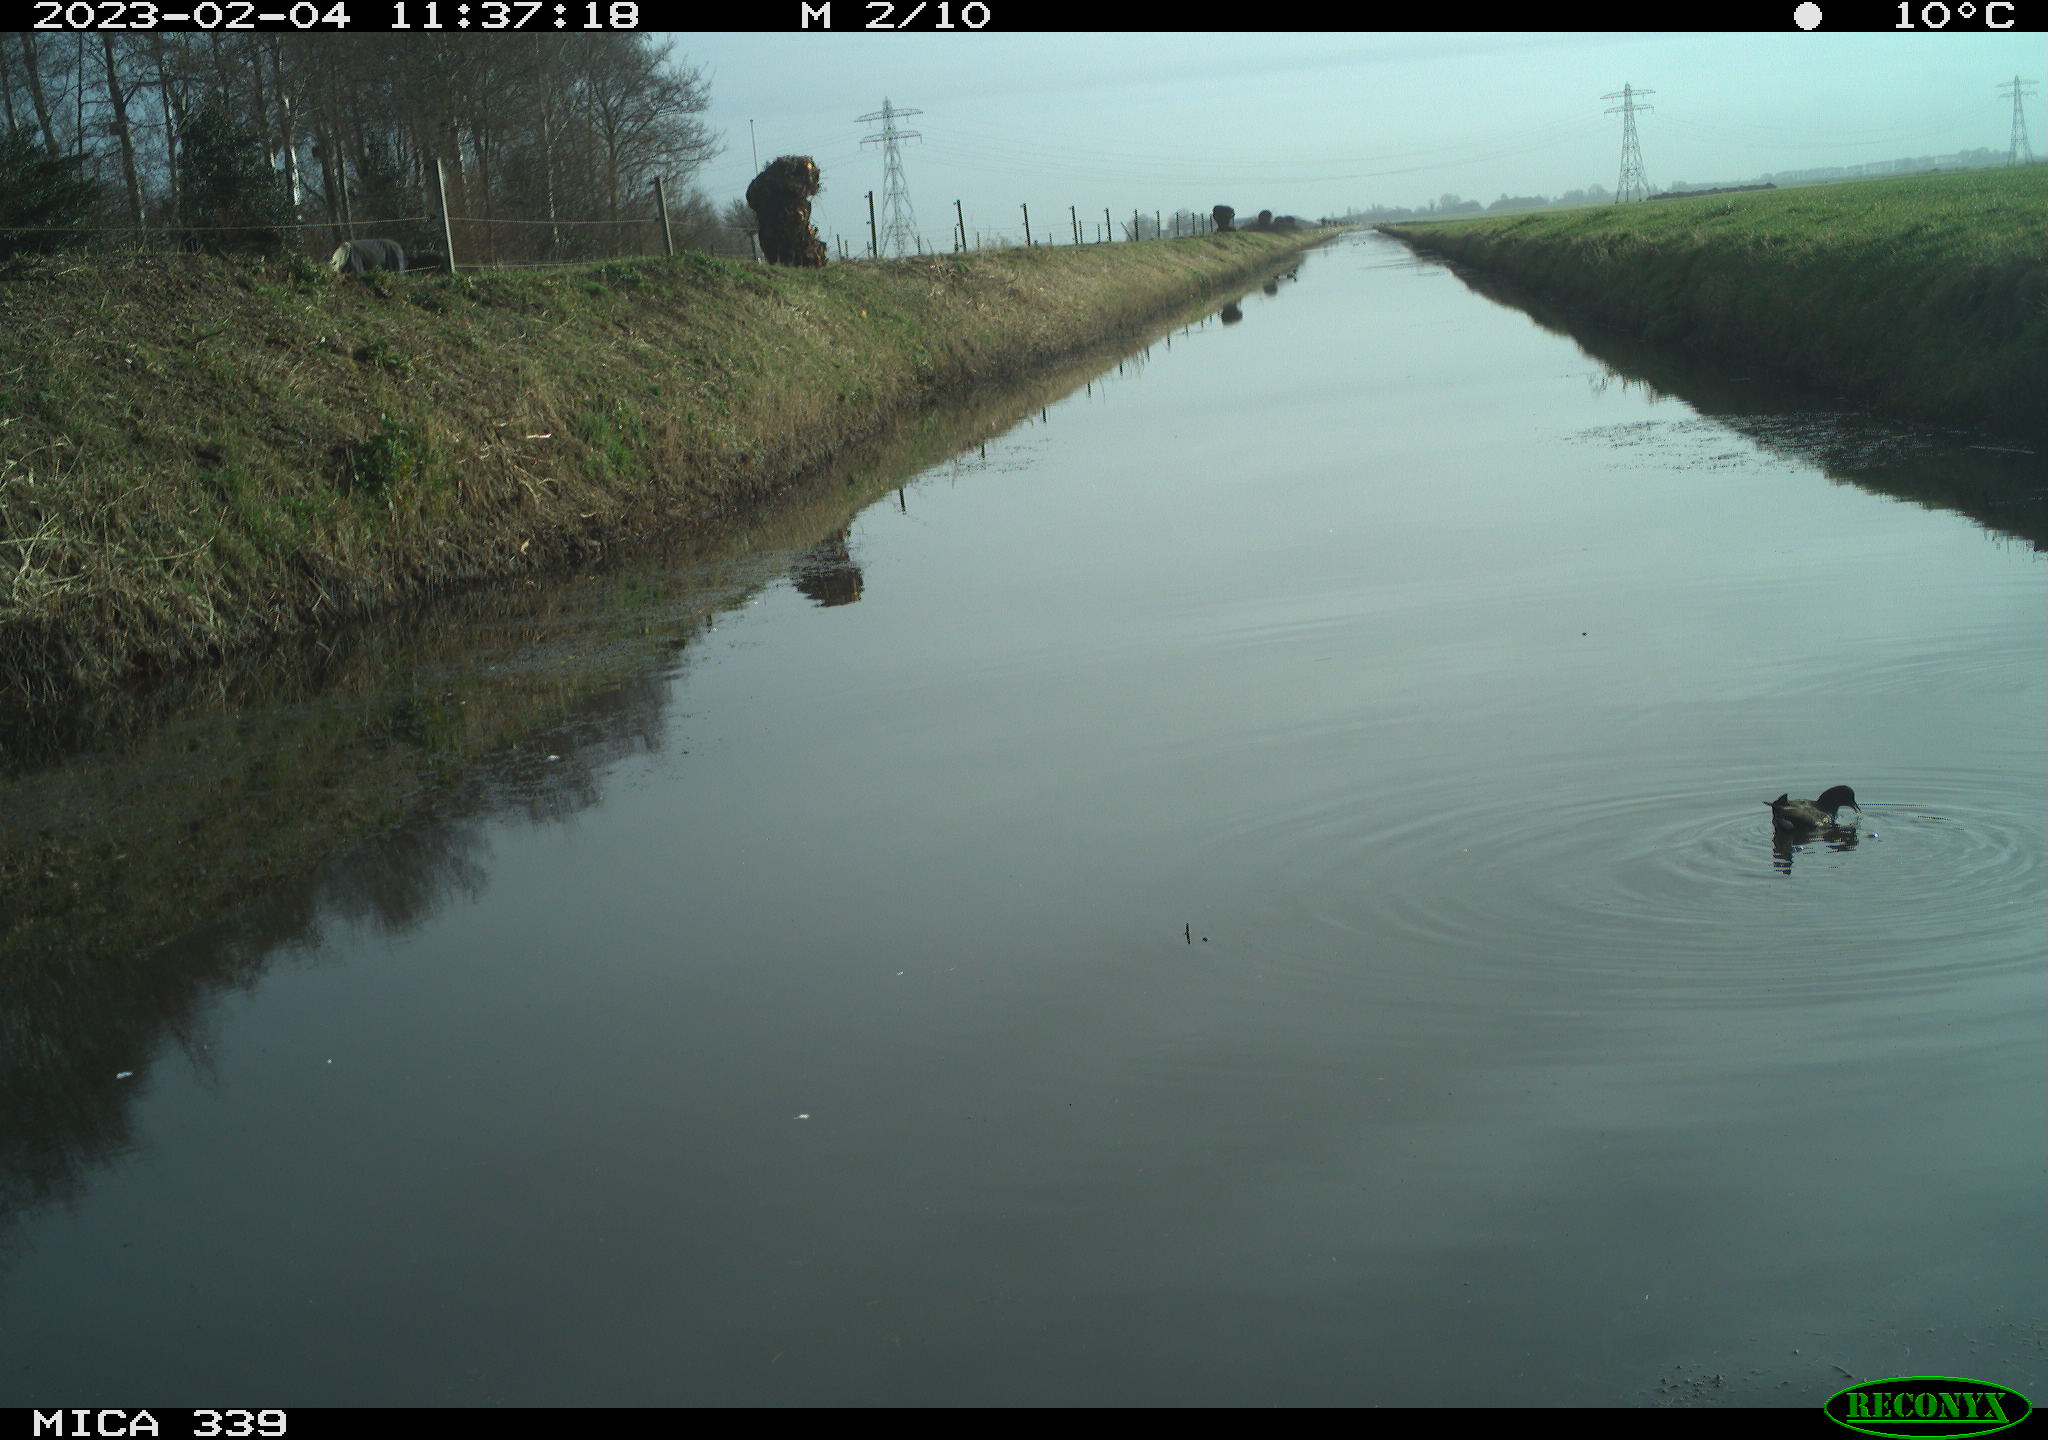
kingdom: Animalia
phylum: Chordata
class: Aves
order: Gruiformes
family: Rallidae
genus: Gallinula
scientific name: Gallinula chloropus
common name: Common moorhen
